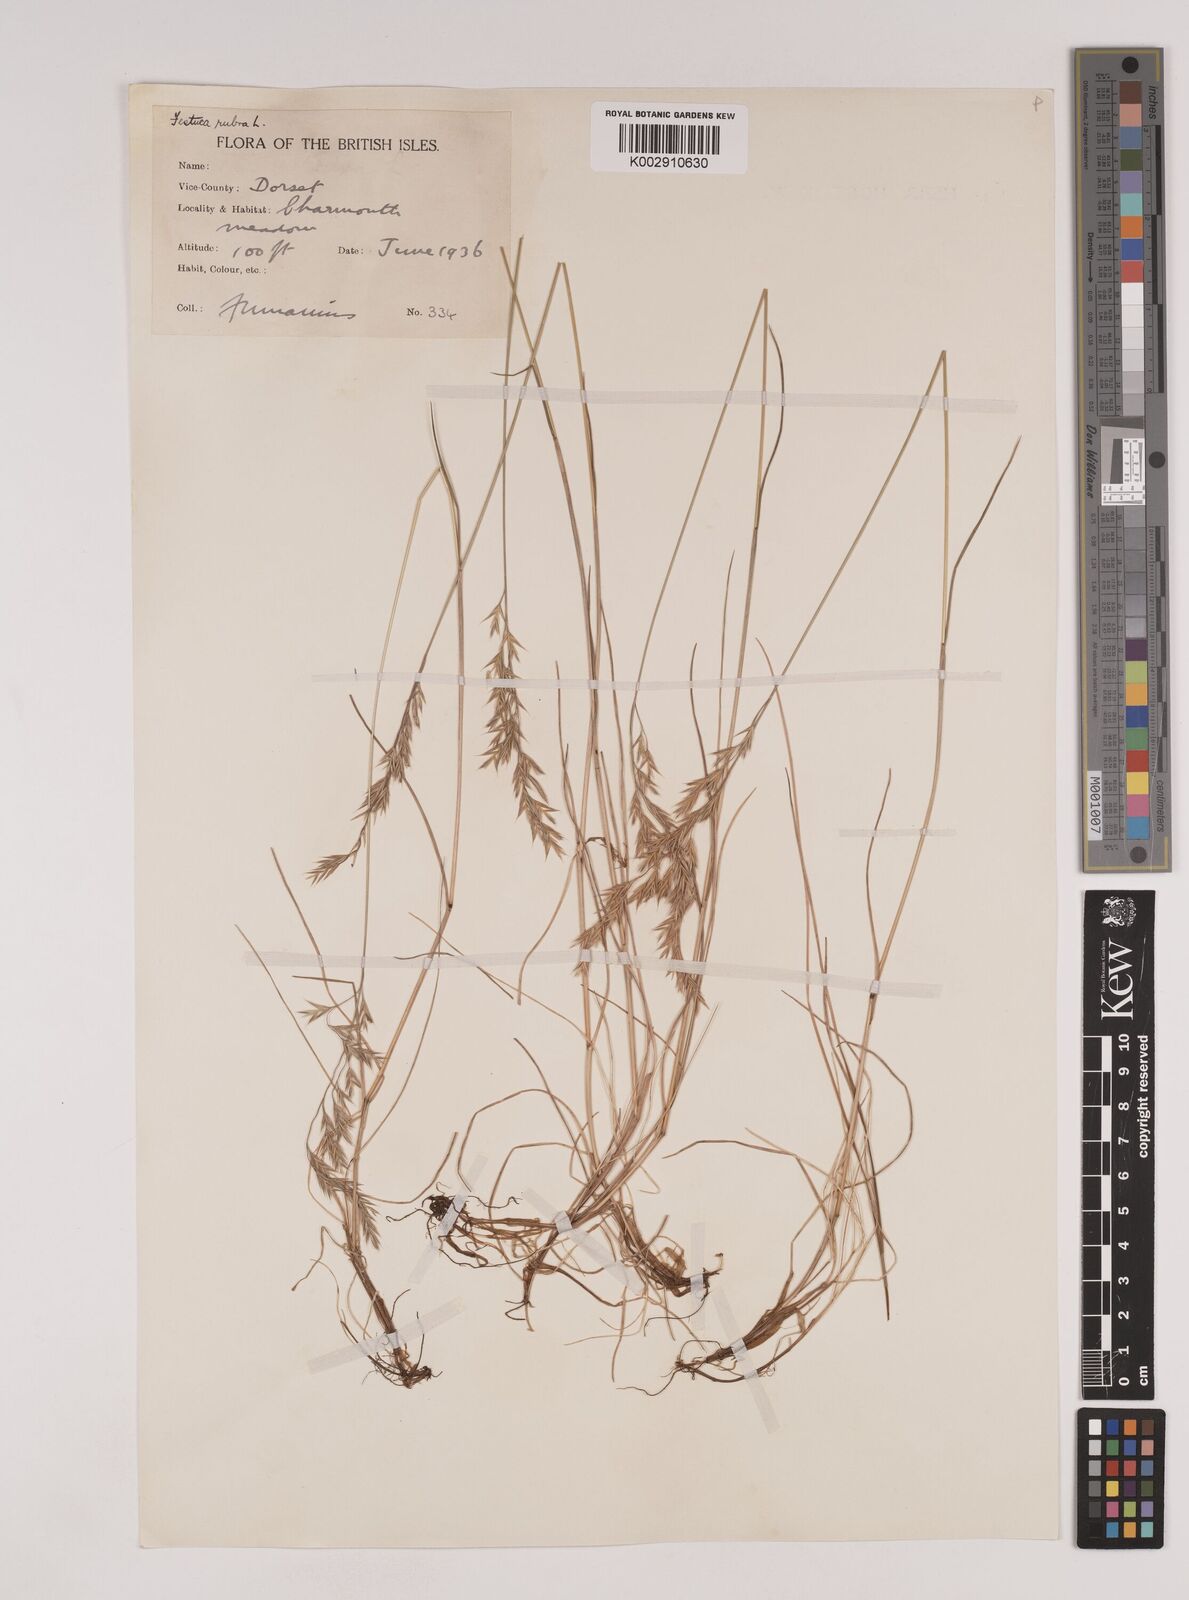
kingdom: Plantae
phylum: Tracheophyta
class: Liliopsida
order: Poales
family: Poaceae
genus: Festuca
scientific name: Festuca rubra
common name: Red fescue
